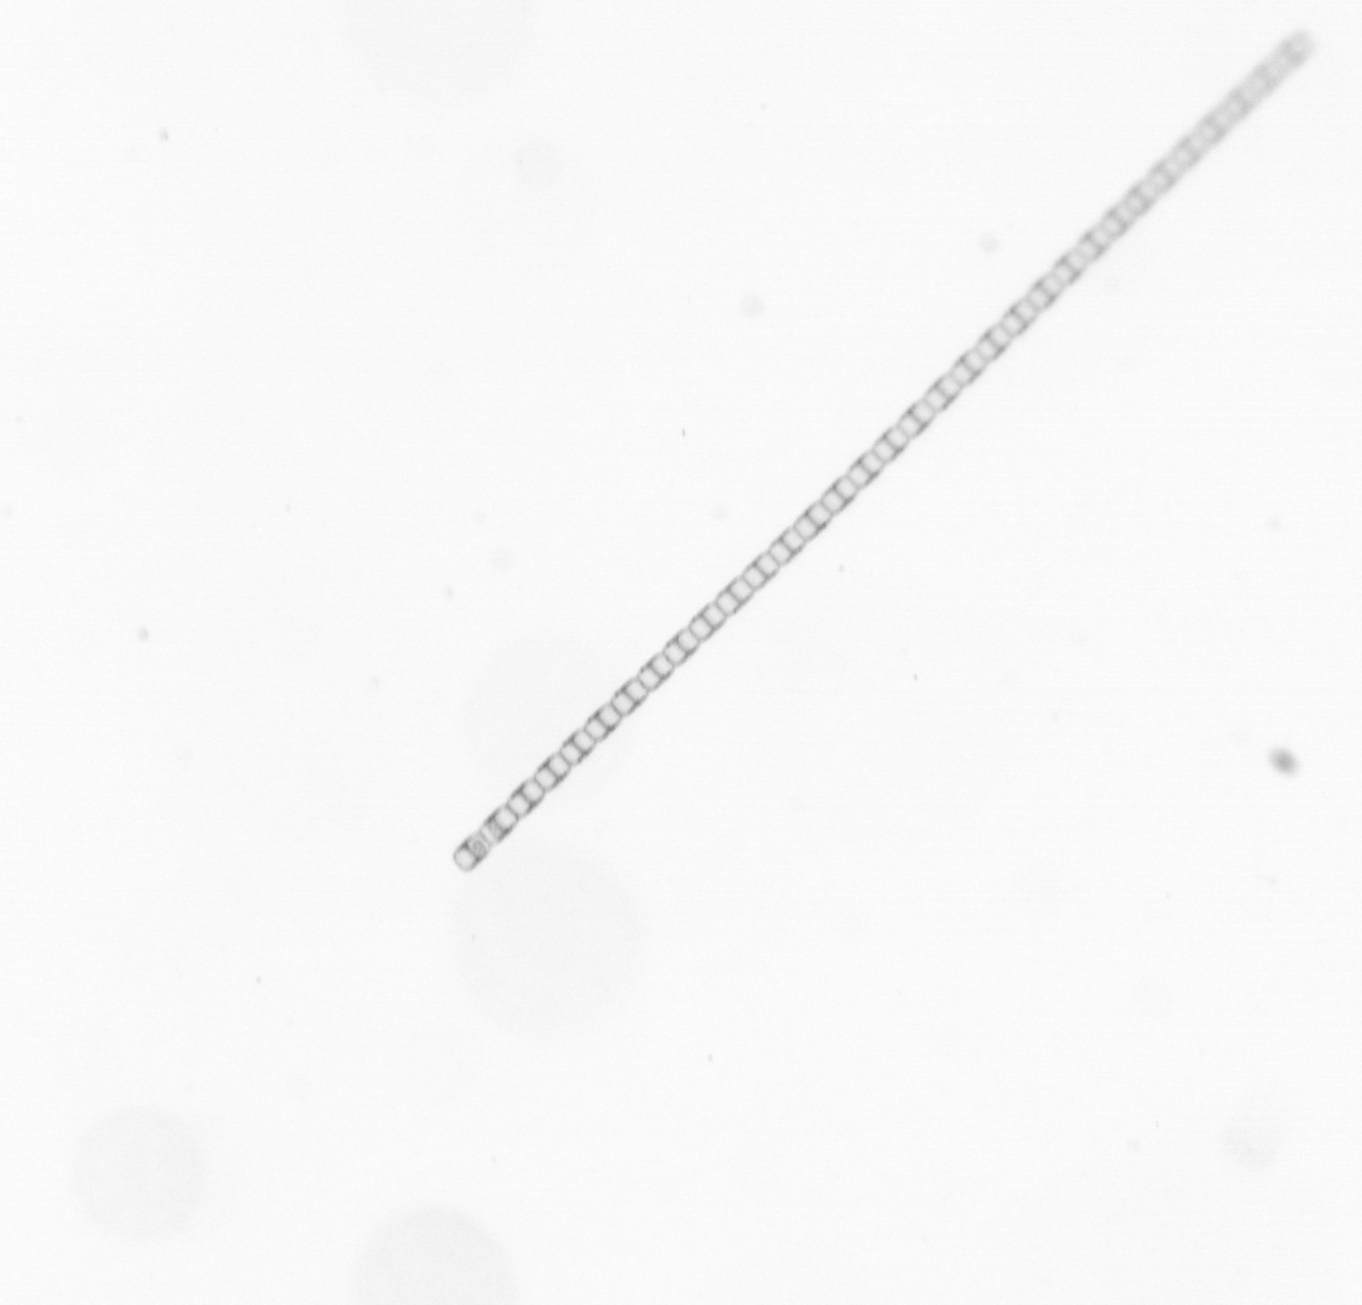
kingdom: Chromista
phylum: Ochrophyta
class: Bacillariophyceae
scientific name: Bacillariophyceae
